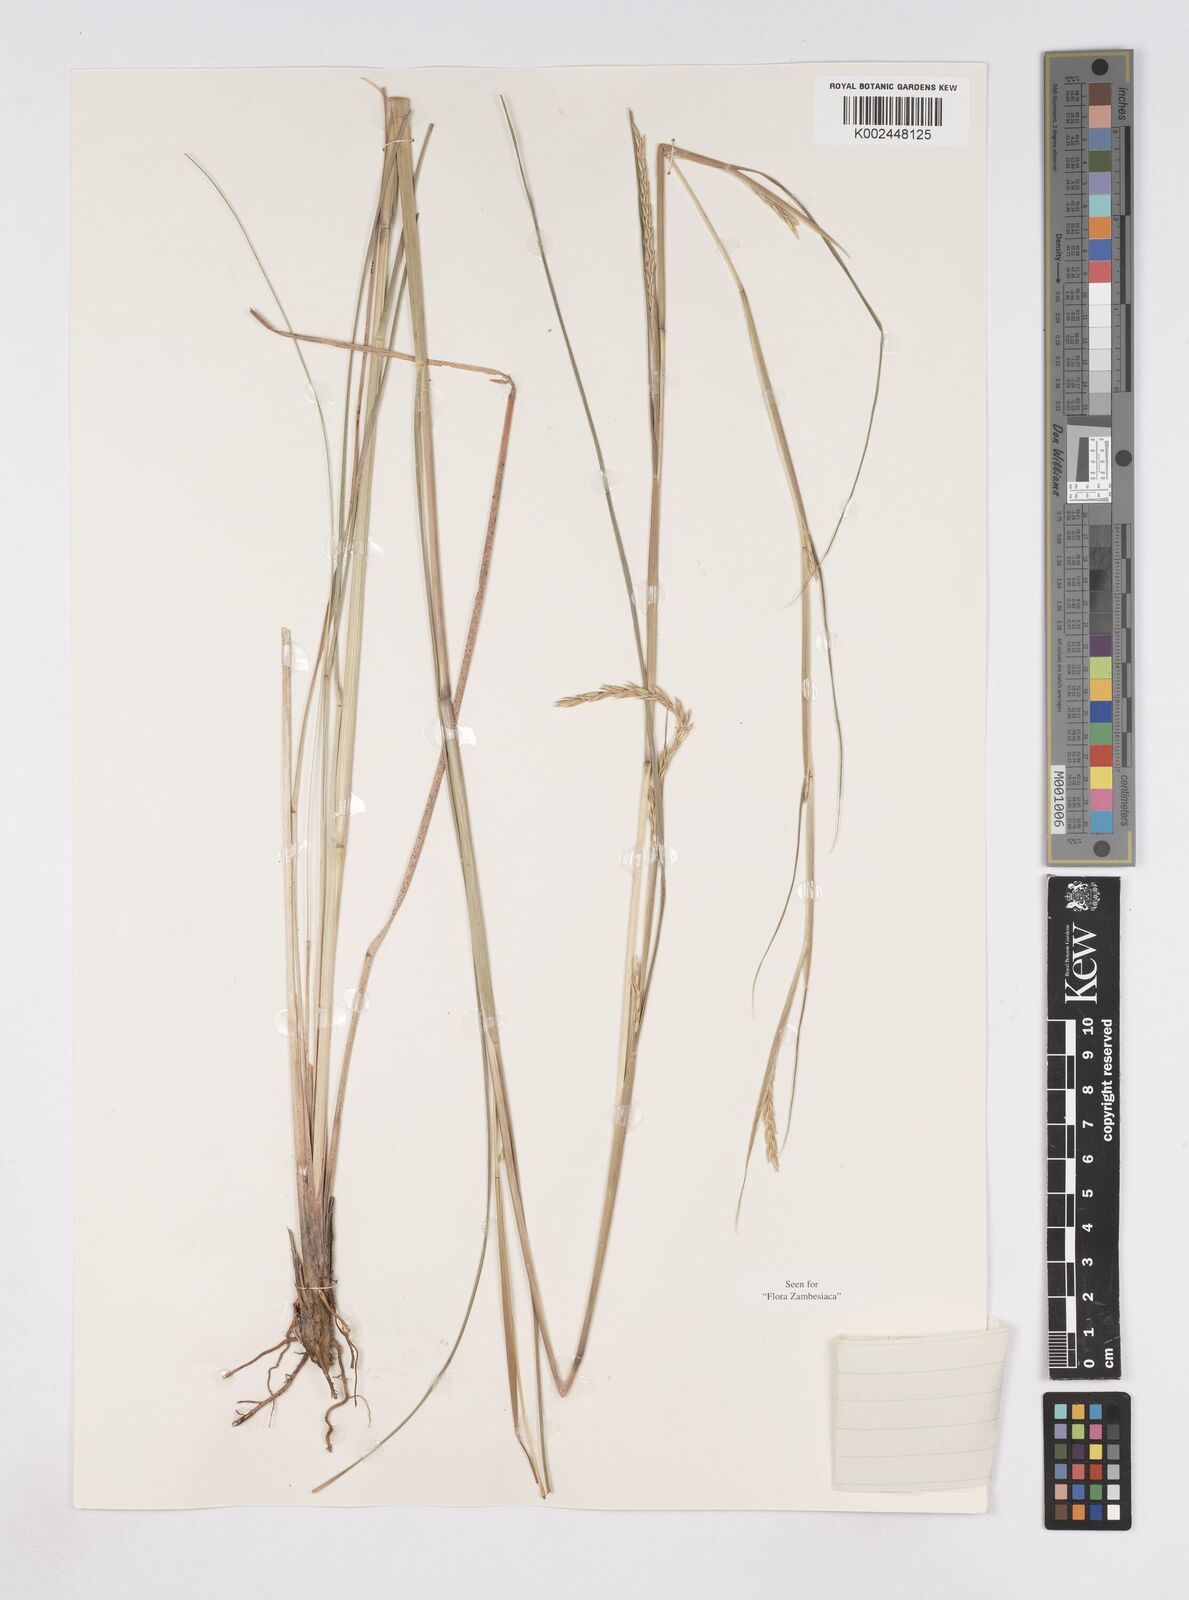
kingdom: Plantae
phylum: Tracheophyta
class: Liliopsida
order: Poales
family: Poaceae
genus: Elionurus
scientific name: Elionurus tripsacoides
